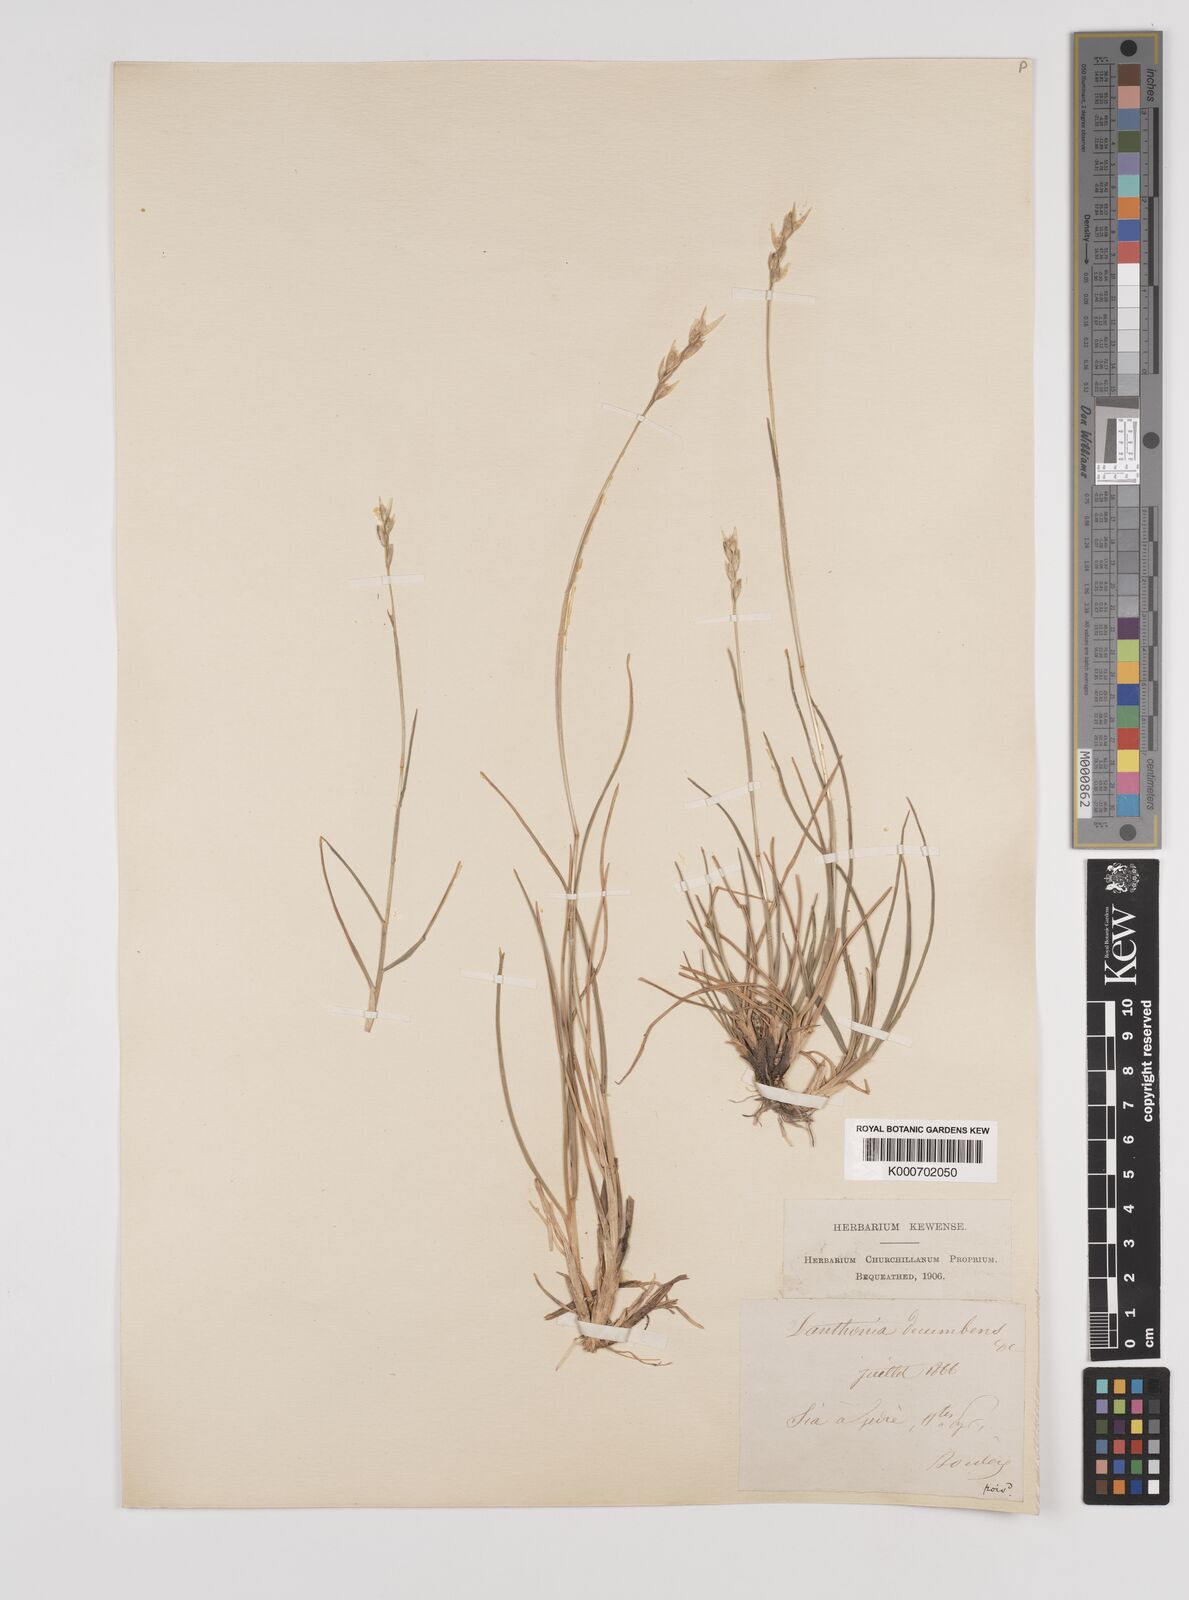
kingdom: Plantae
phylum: Tracheophyta
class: Liliopsida
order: Poales
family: Poaceae
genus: Danthonia
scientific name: Danthonia decumbens
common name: Common heathgrass
